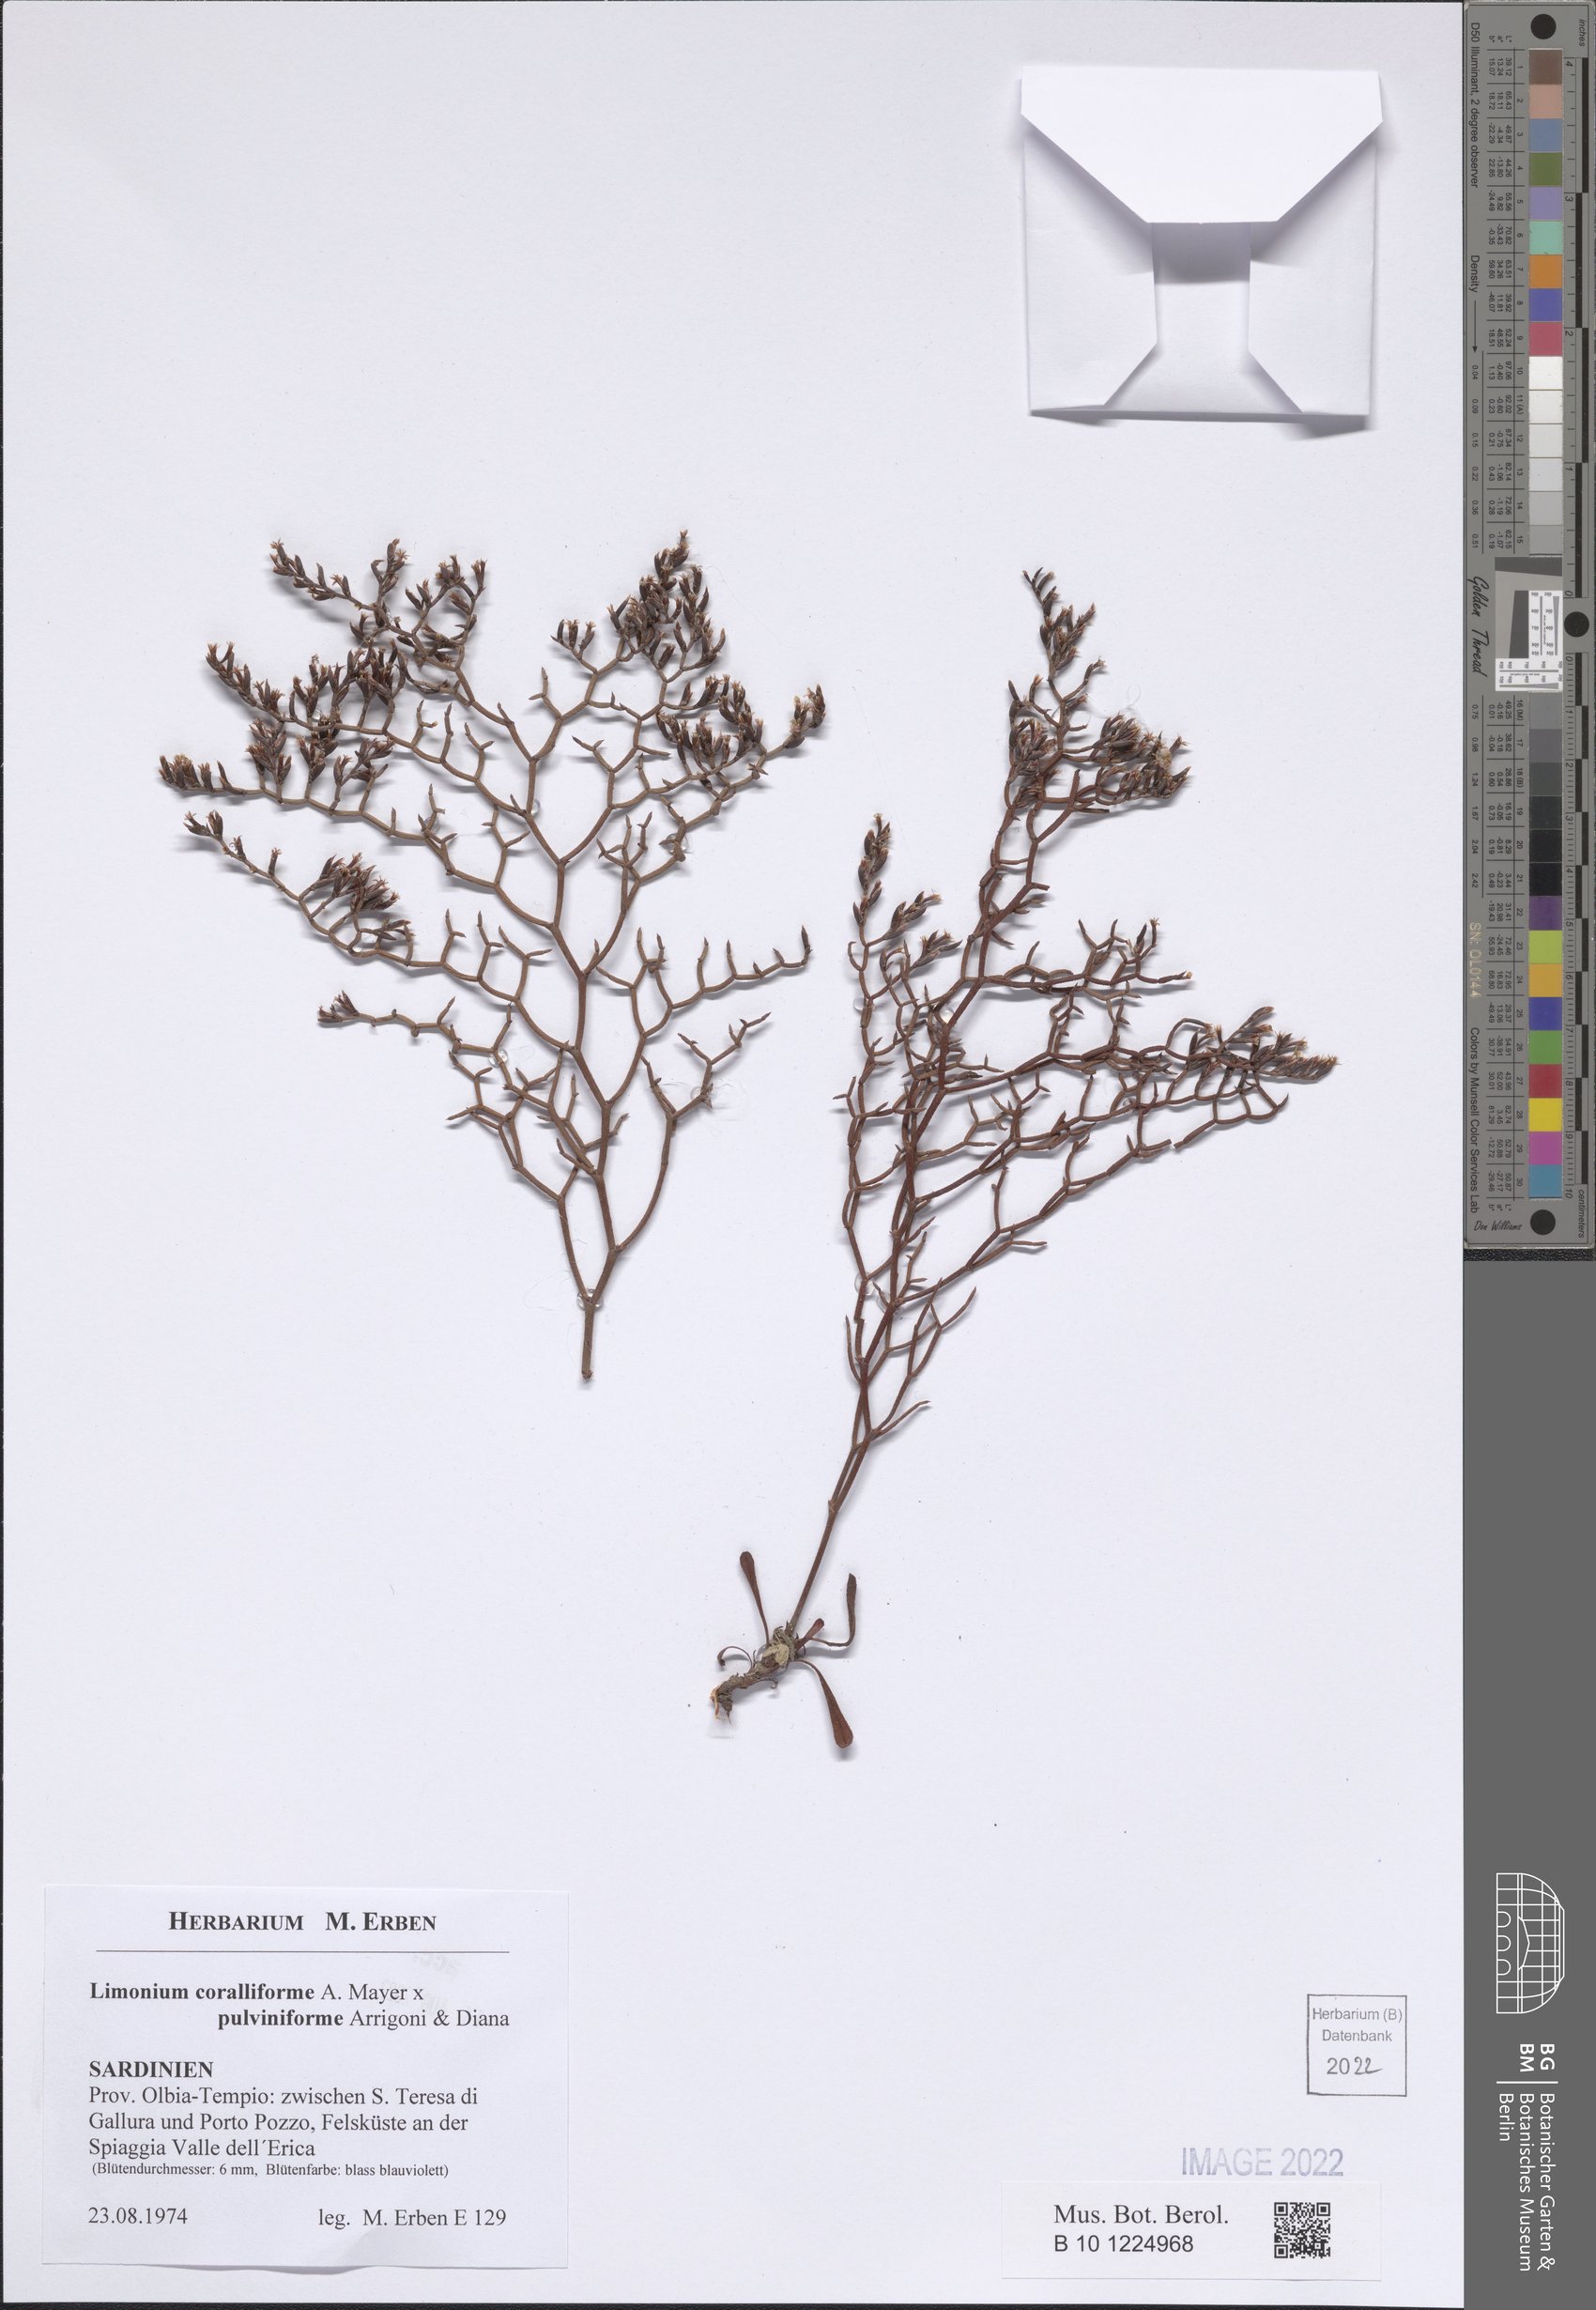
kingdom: Plantae
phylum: Tracheophyta
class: Magnoliopsida
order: Caryophyllales
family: Plumbaginaceae
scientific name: Plumbaginaceae
